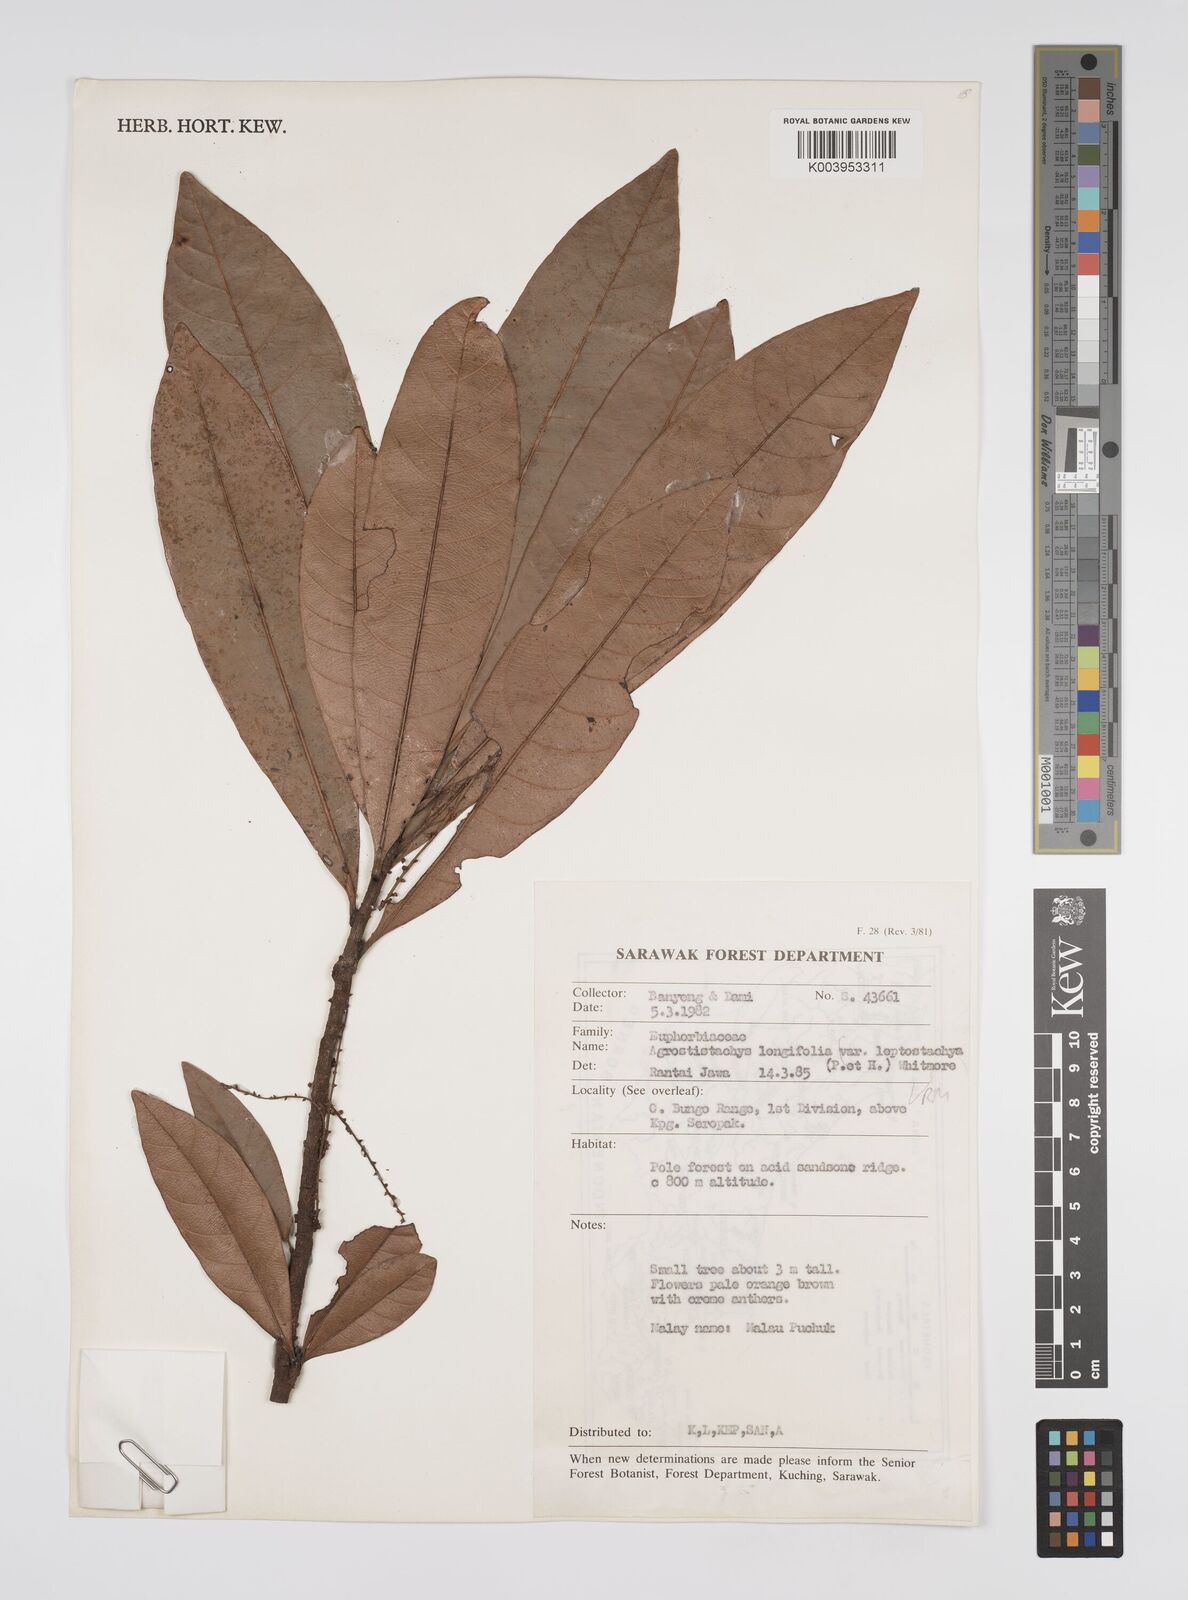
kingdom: Plantae
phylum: Tracheophyta
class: Magnoliopsida
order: Malpighiales
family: Euphorbiaceae
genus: Agrostistachys
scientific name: Agrostistachys
